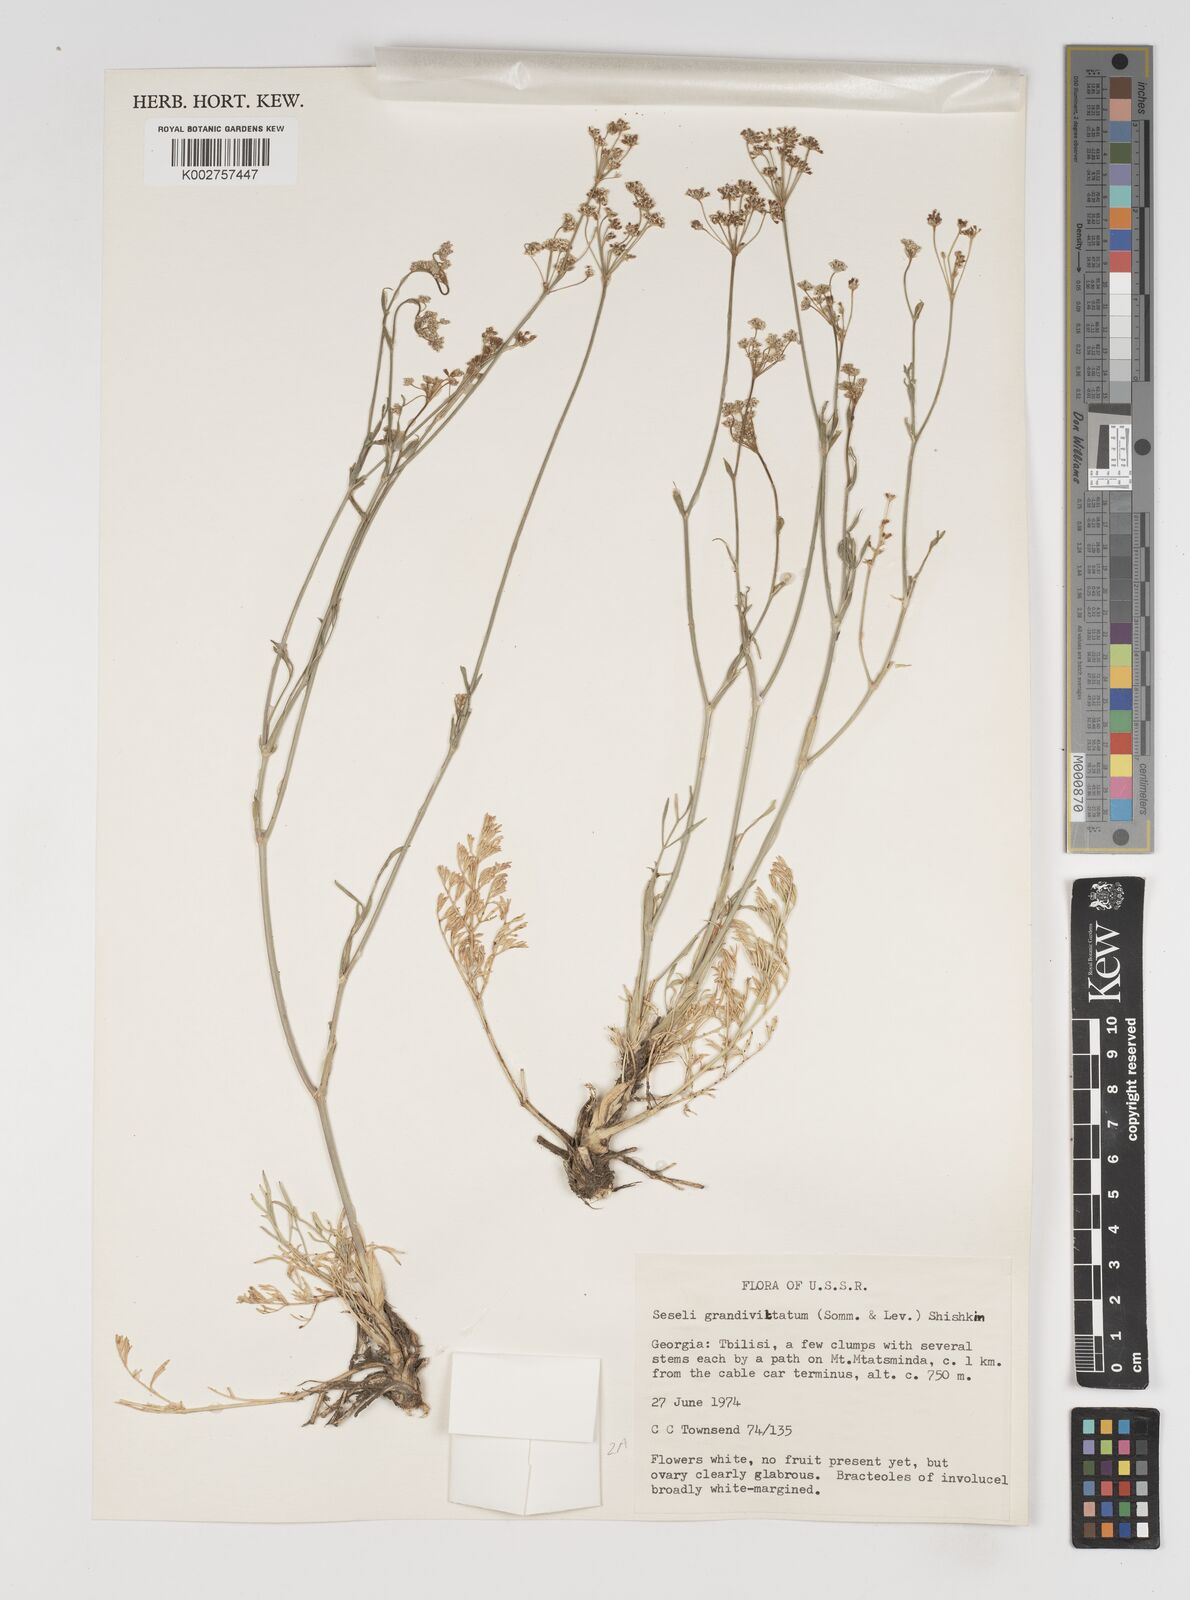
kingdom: Plantae
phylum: Tracheophyta
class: Magnoliopsida
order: Apiales
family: Apiaceae
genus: Seseli
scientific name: Seseli grandivittatum
